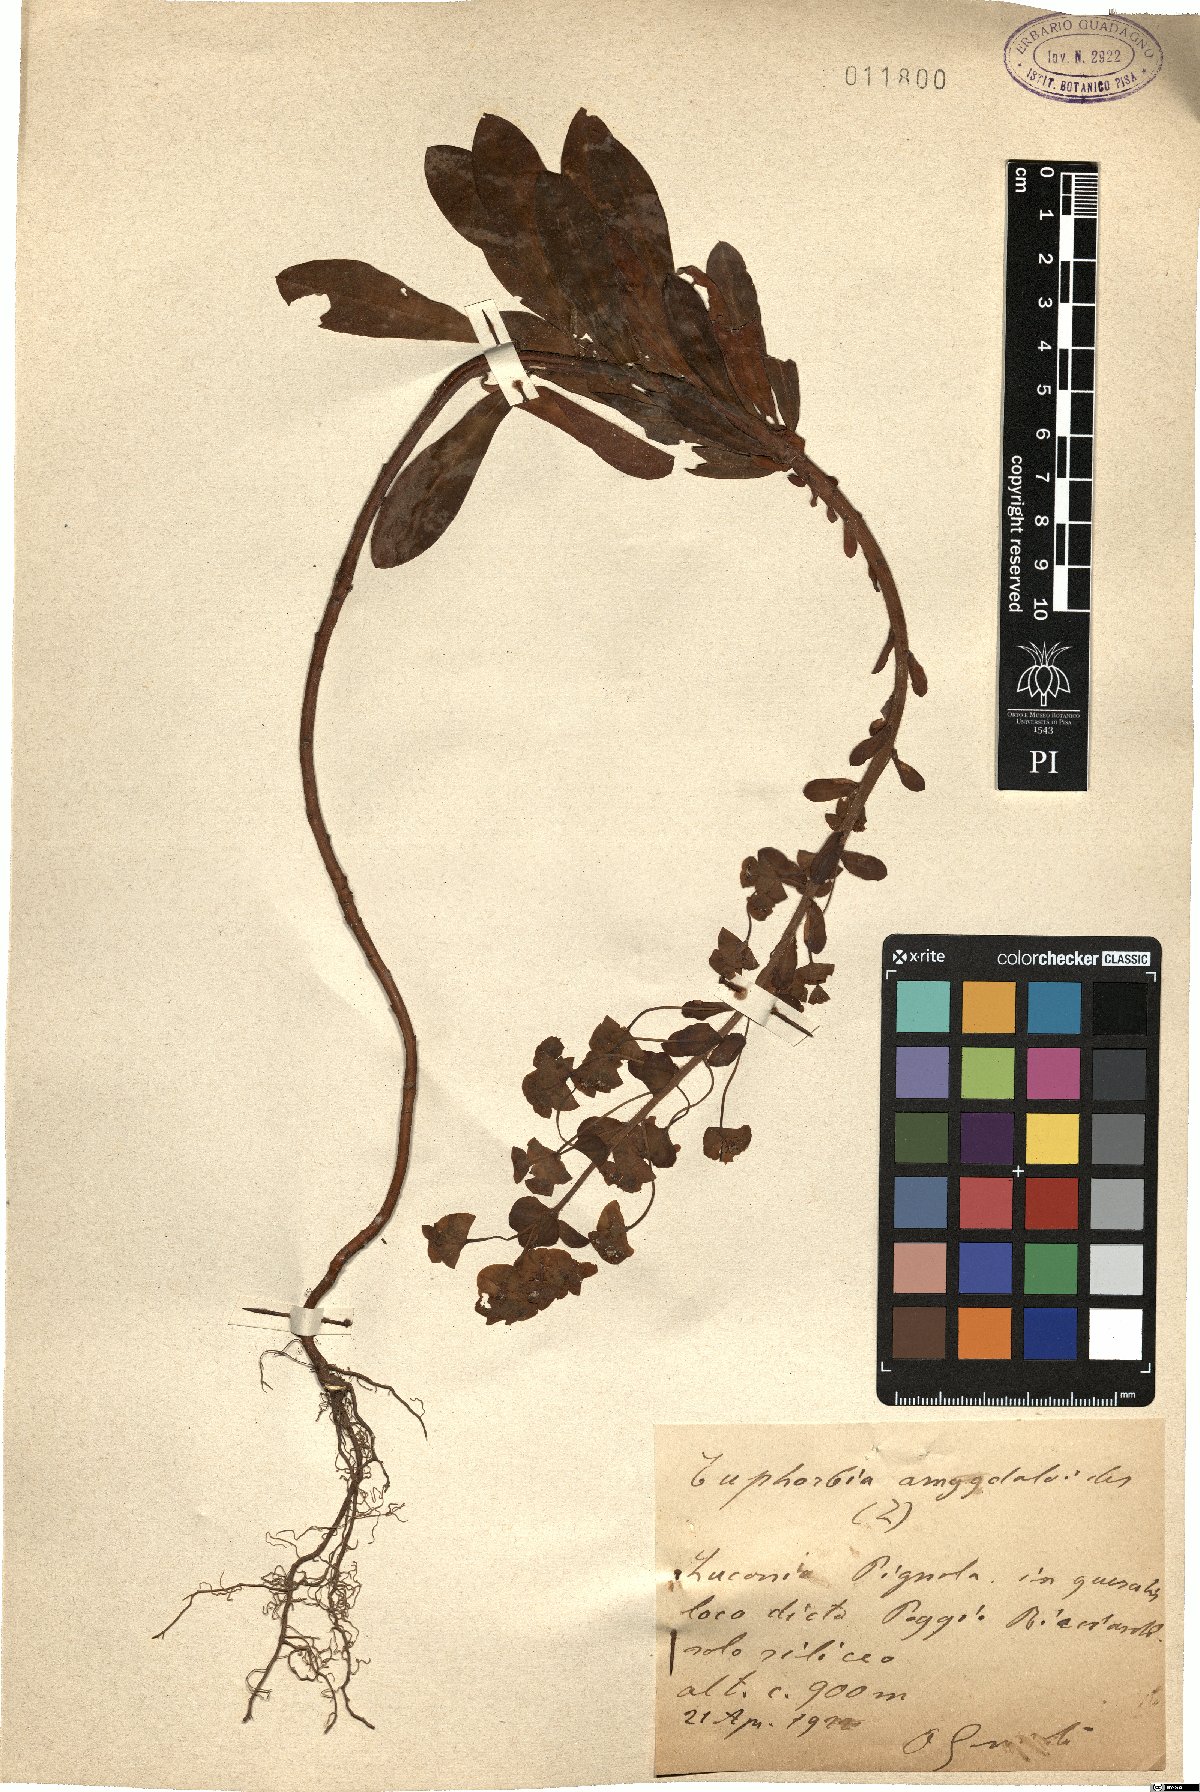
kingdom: Plantae
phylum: Tracheophyta
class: Magnoliopsida
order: Malpighiales
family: Euphorbiaceae
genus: Euphorbia
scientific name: Euphorbia amygdaloides
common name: Wood spurge
